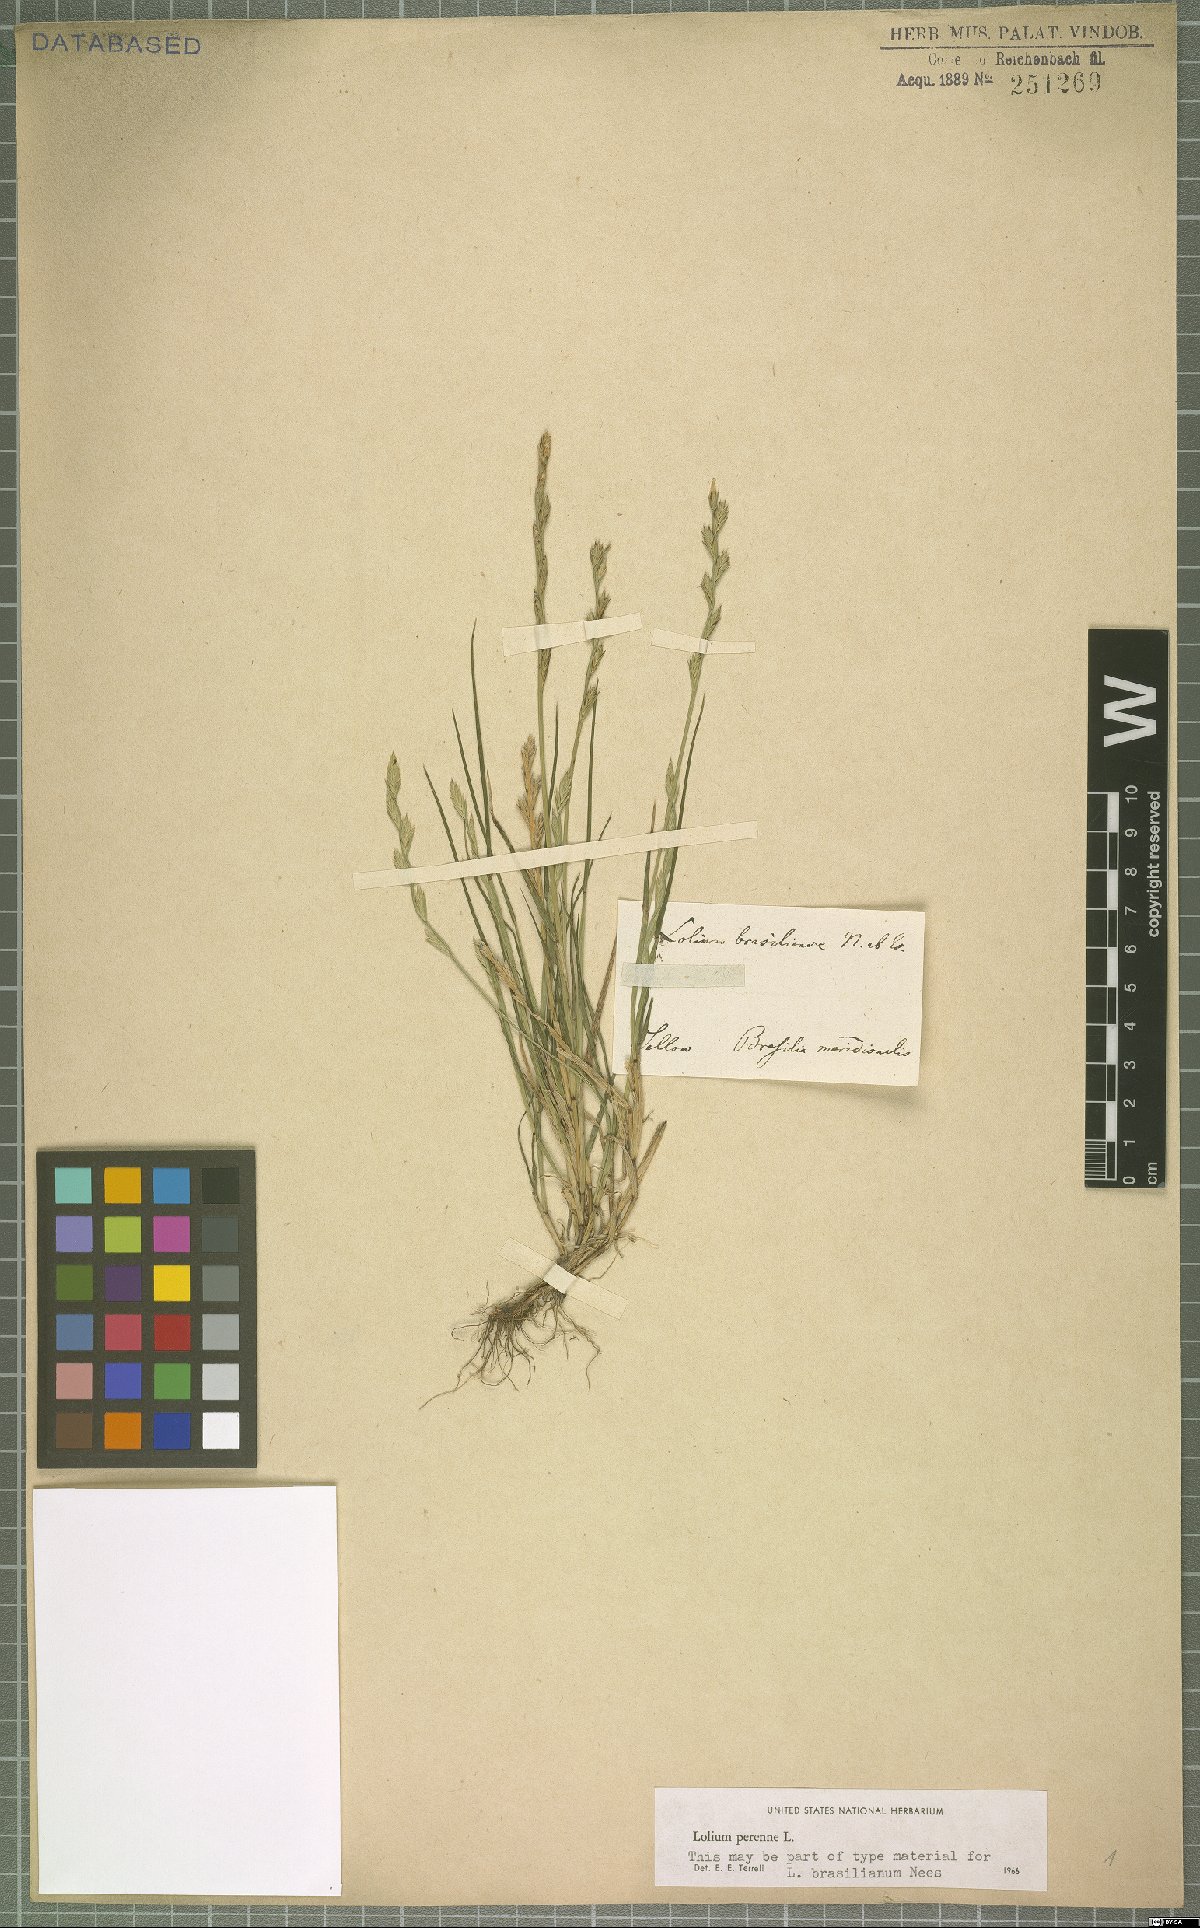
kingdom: Plantae
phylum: Tracheophyta
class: Liliopsida
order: Poales
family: Poaceae
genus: Lolium
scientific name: Lolium perenne
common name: Perennial ryegrass
